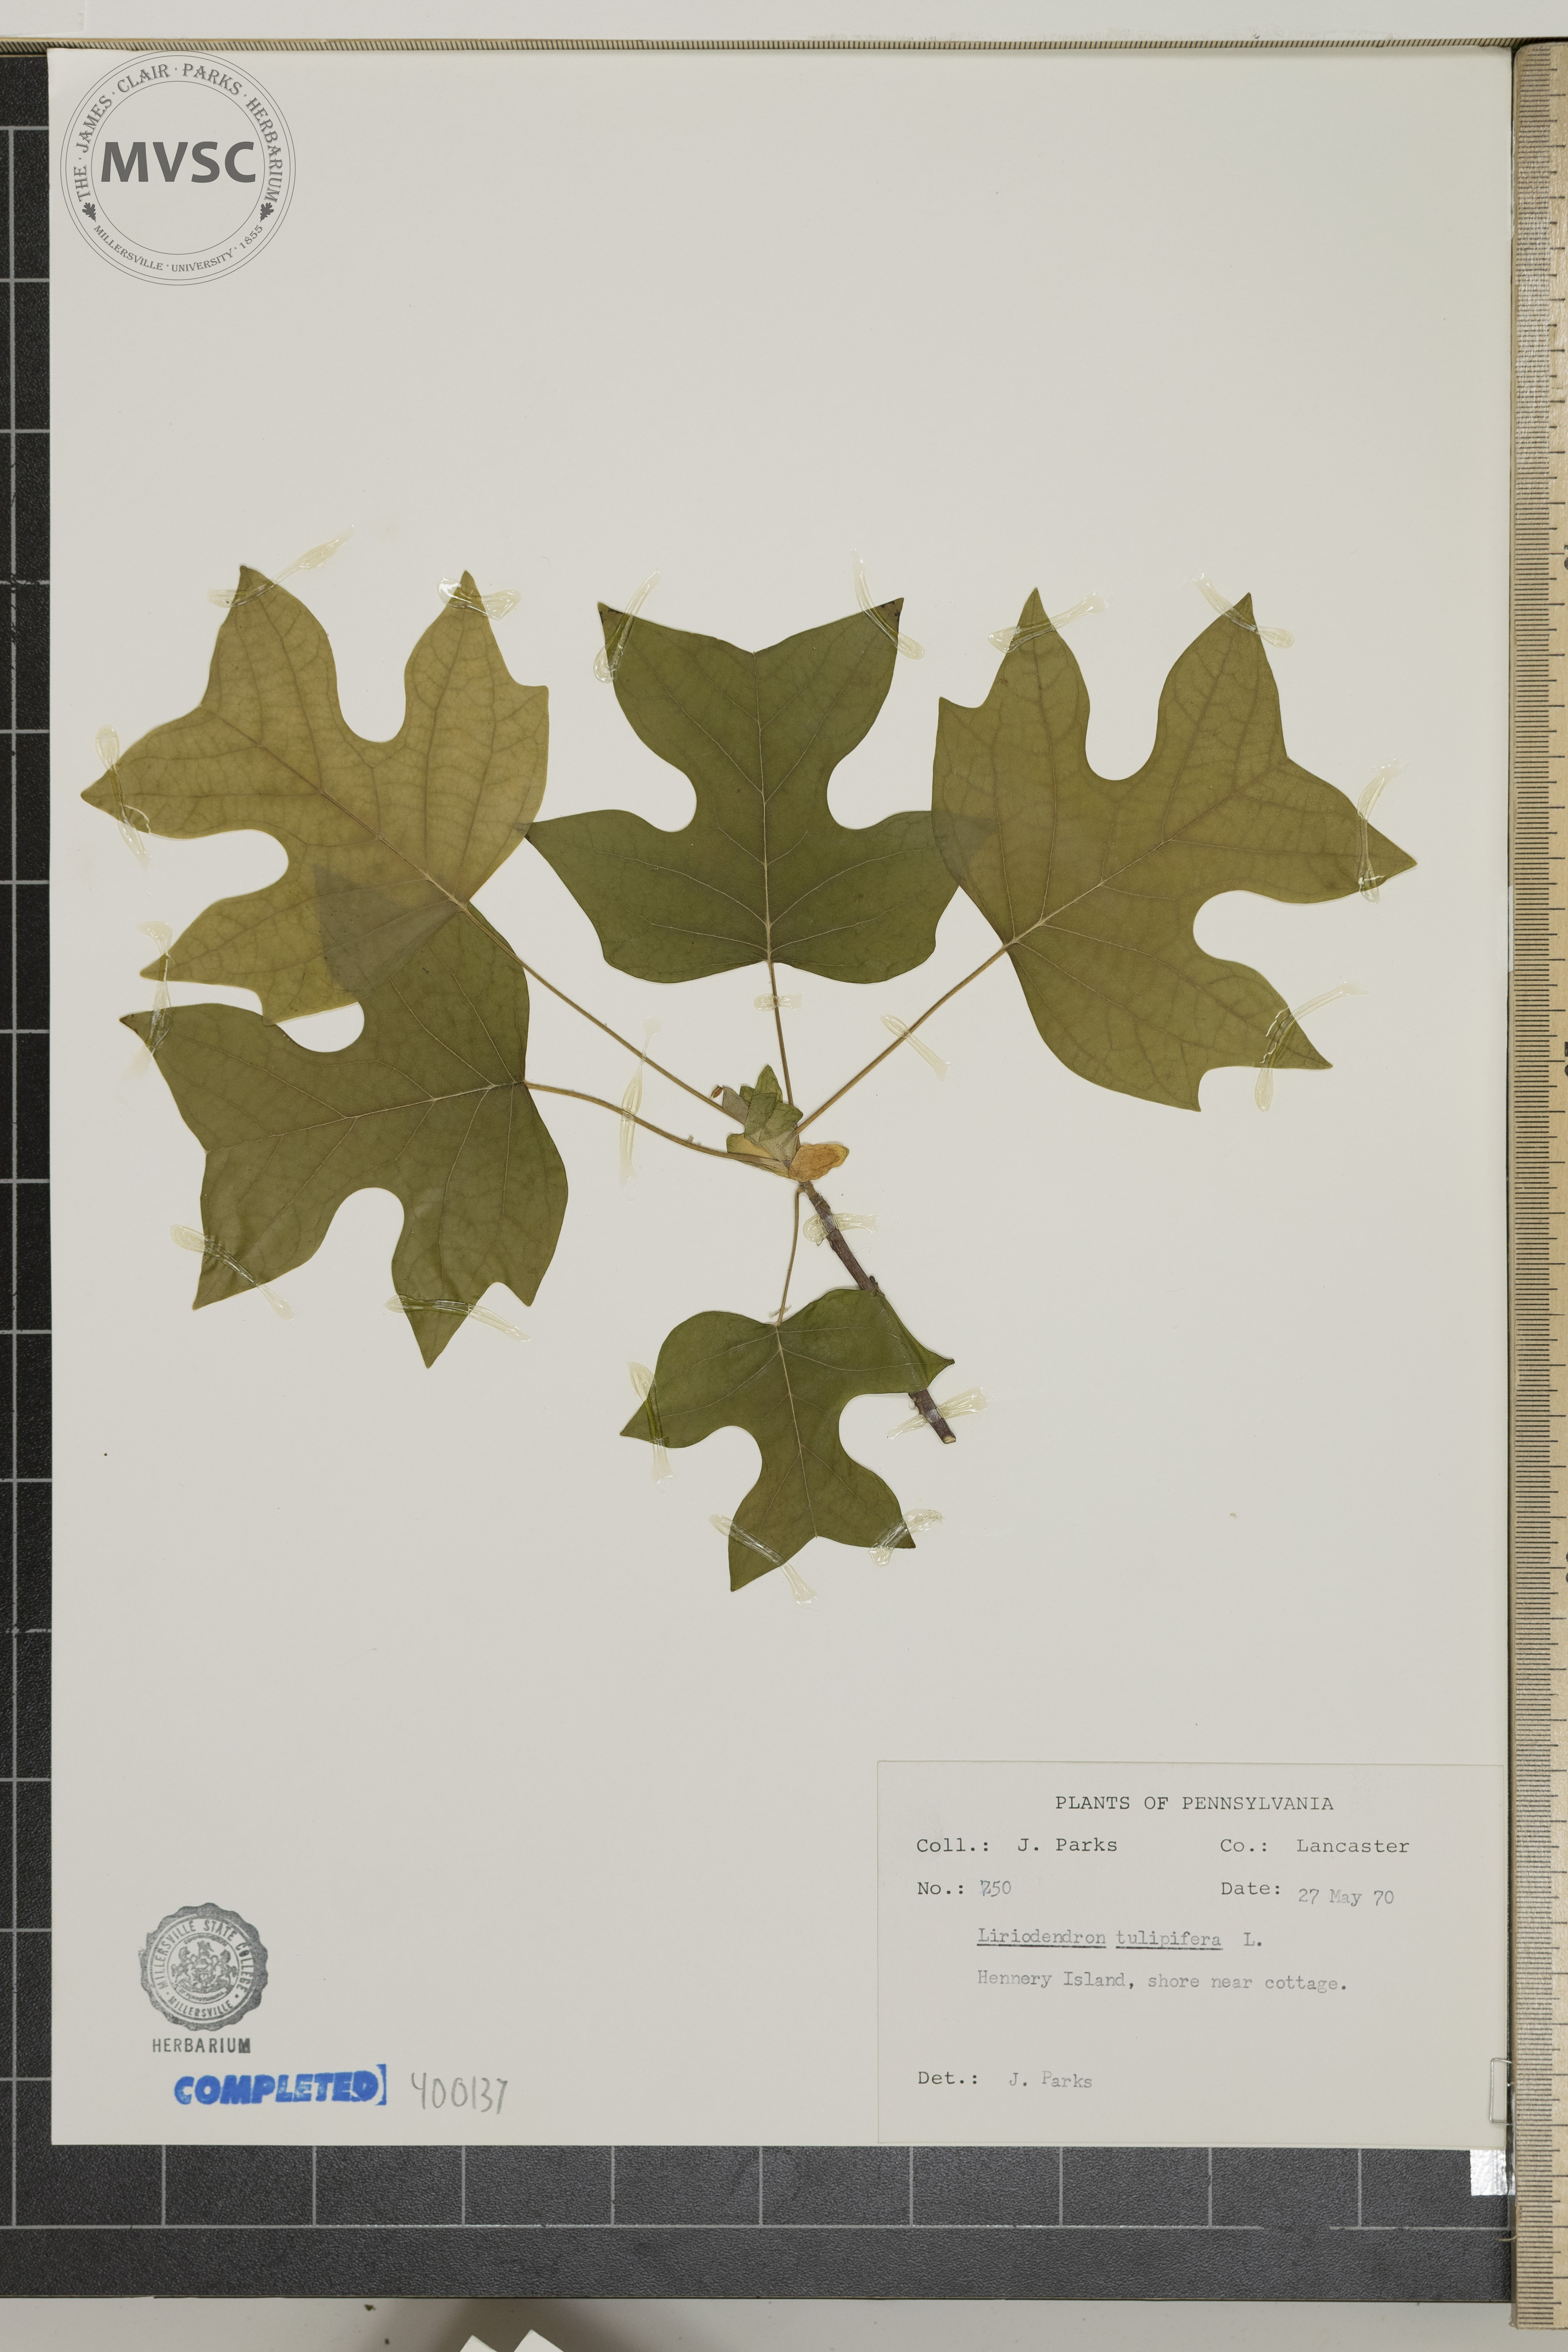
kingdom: Plantae
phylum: Tracheophyta
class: Magnoliopsida
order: Magnoliales
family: Magnoliaceae
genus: Liriodendron
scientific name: Liriodendron tulipifera
